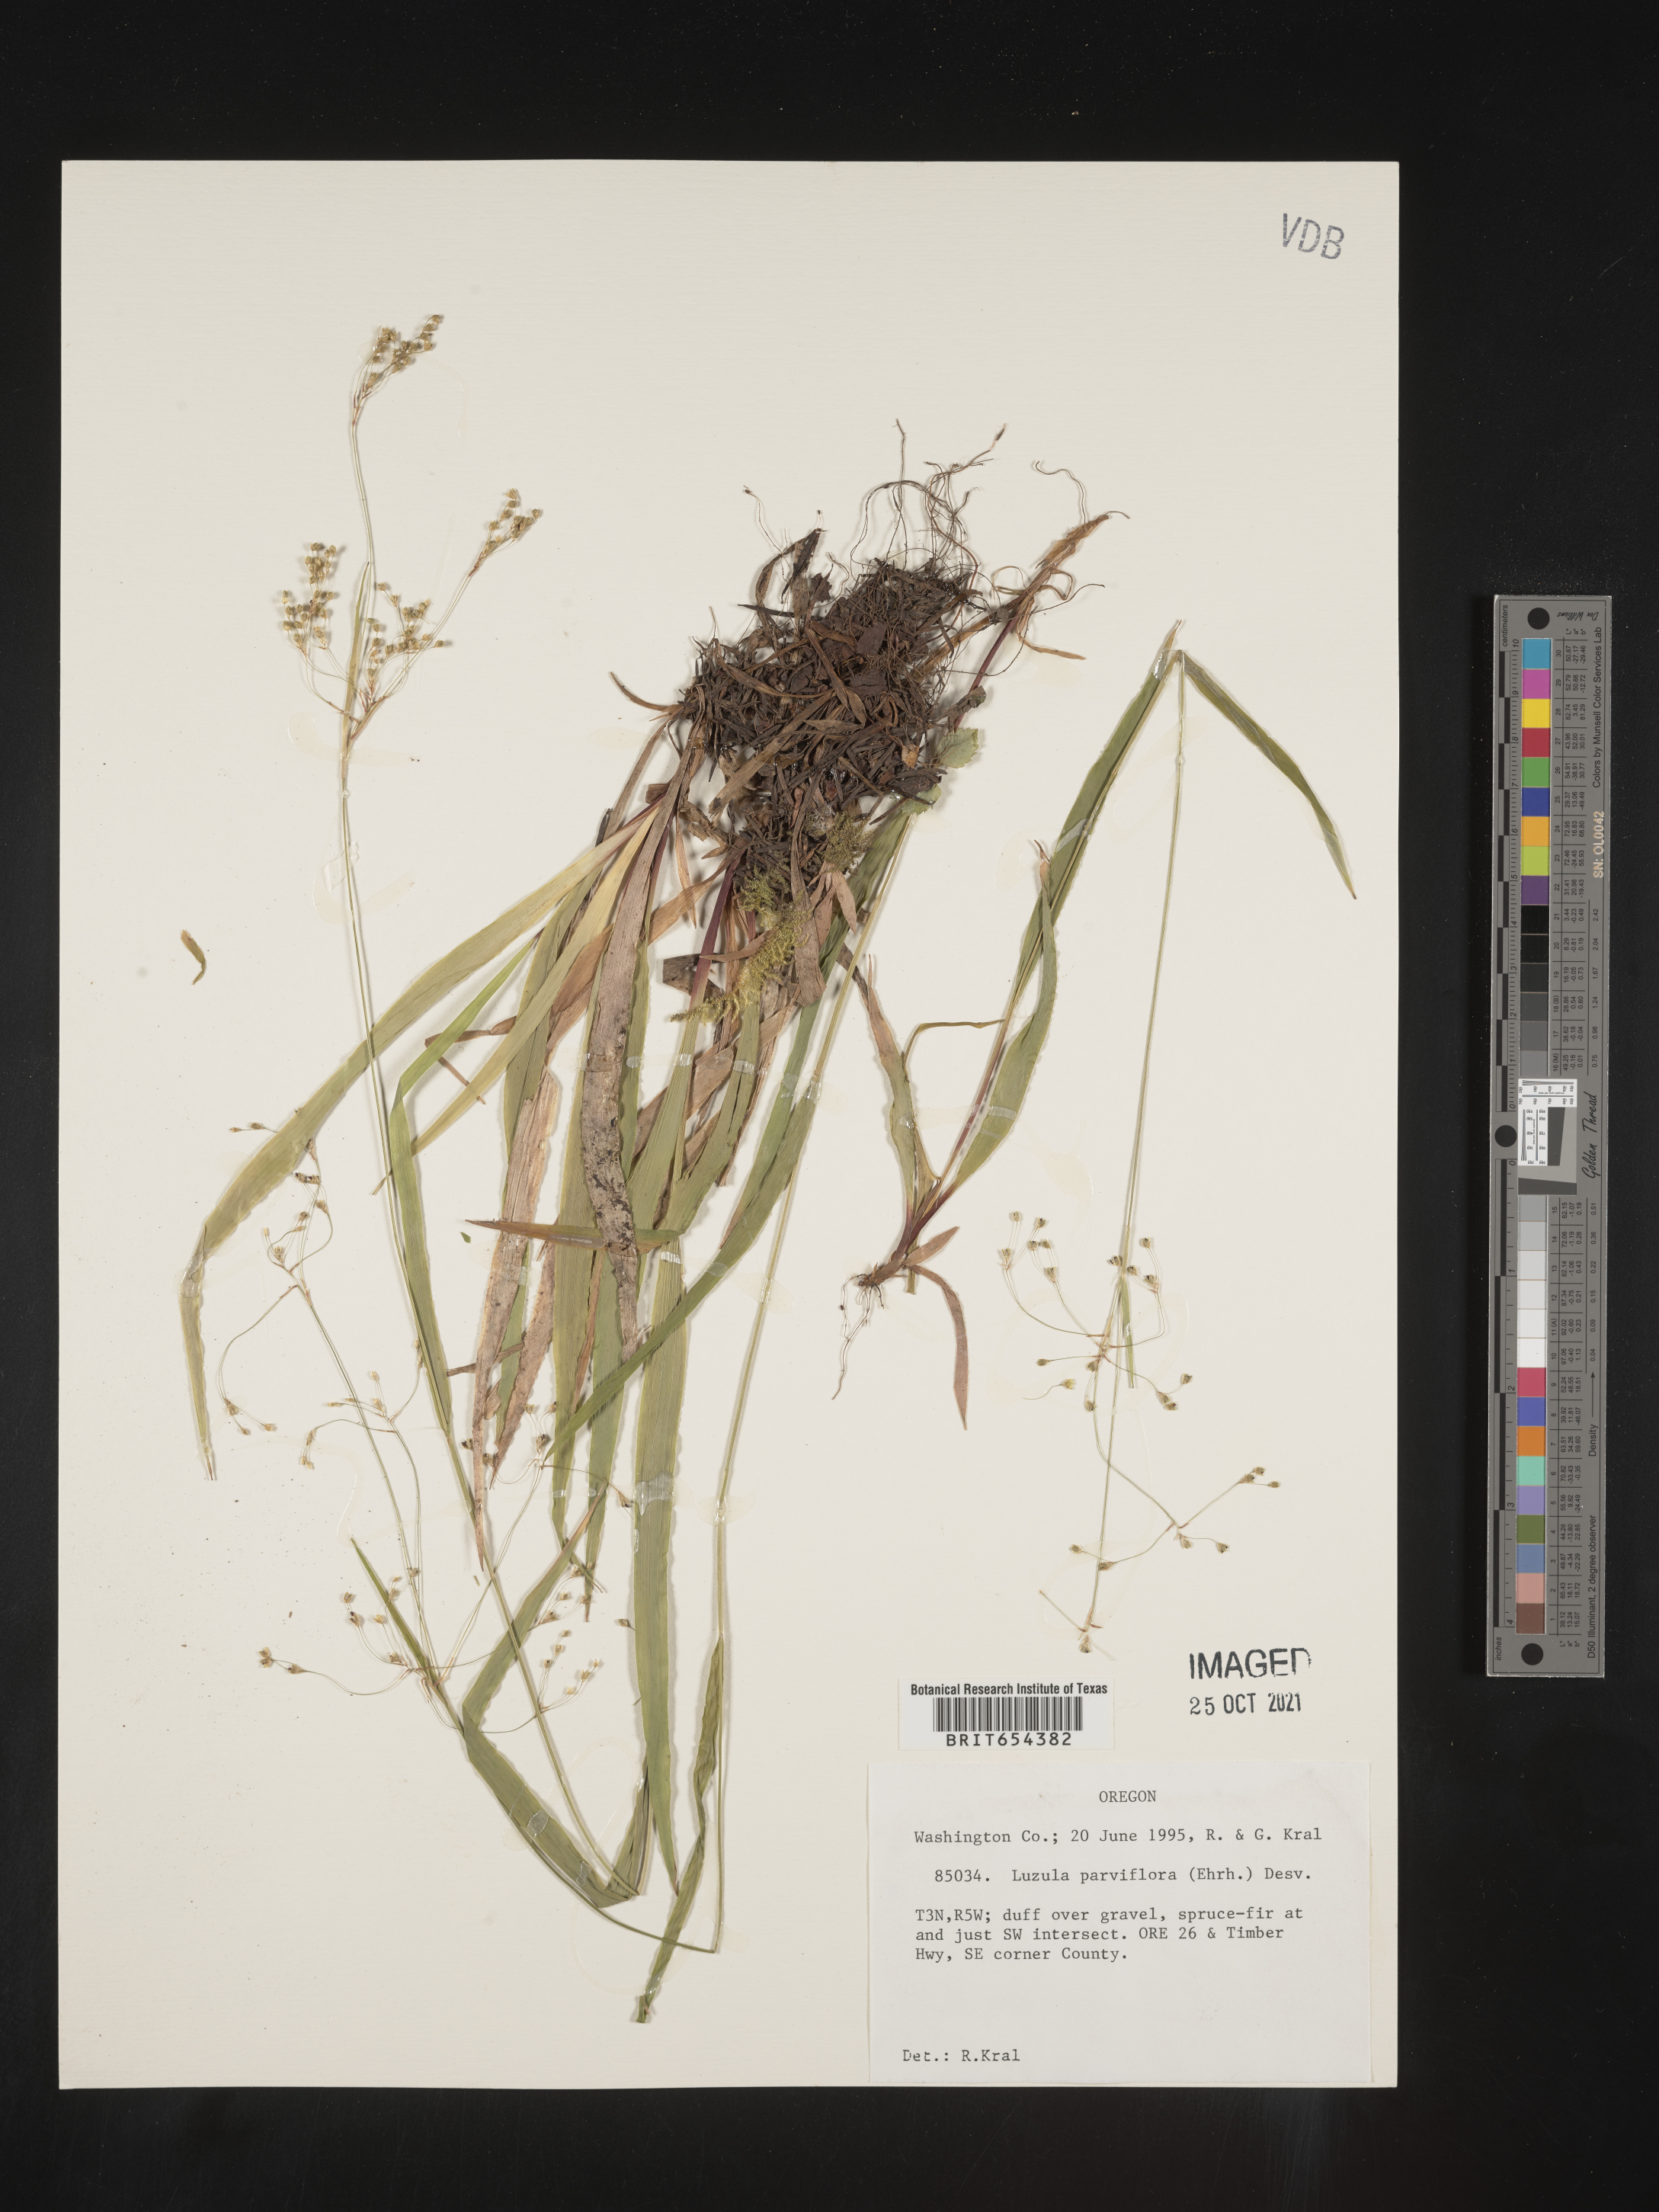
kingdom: Plantae
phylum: Tracheophyta
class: Liliopsida
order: Poales
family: Juncaceae
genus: Luzula
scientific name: Luzula parviflora
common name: Millet woodrush
